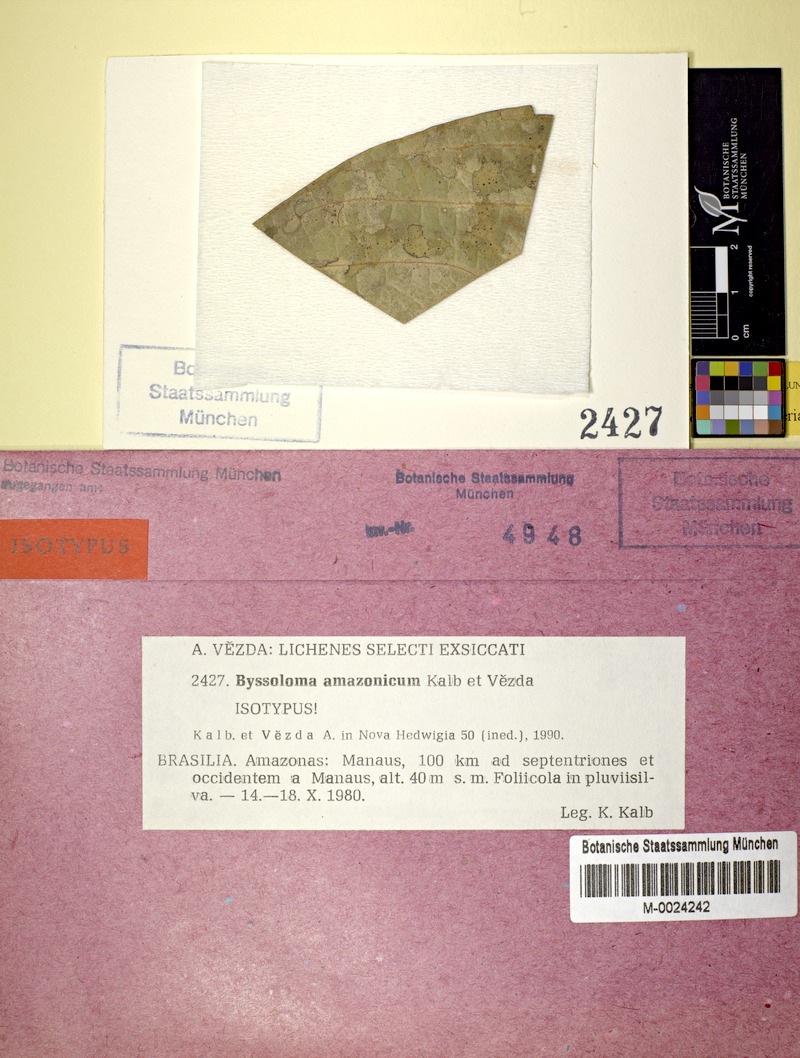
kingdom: Fungi
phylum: Ascomycota
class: Lecanoromycetes
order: Lecanorales
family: Byssolomataceae
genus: Byssoloma
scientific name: Byssoloma amazonicum
